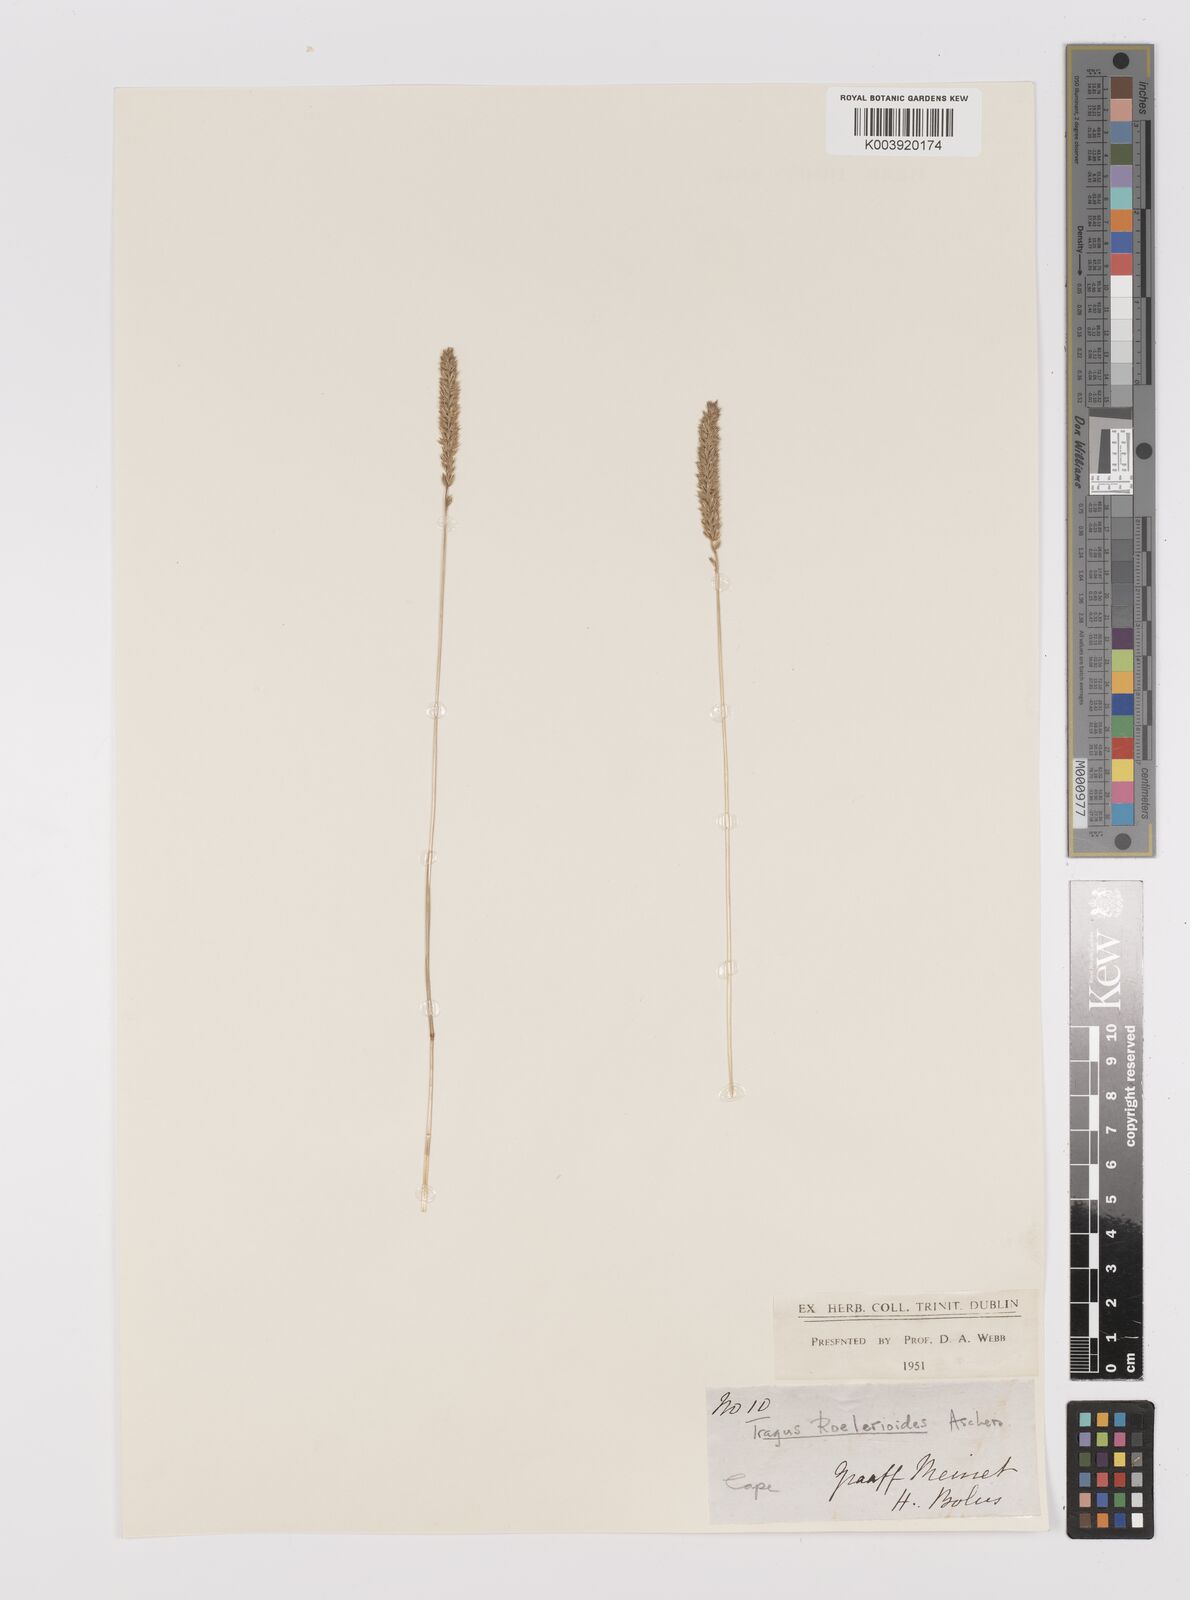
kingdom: Plantae
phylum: Tracheophyta
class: Liliopsida
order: Poales
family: Poaceae
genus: Tragus
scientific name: Tragus koelerioides
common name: Creeping carrot-seed grass
